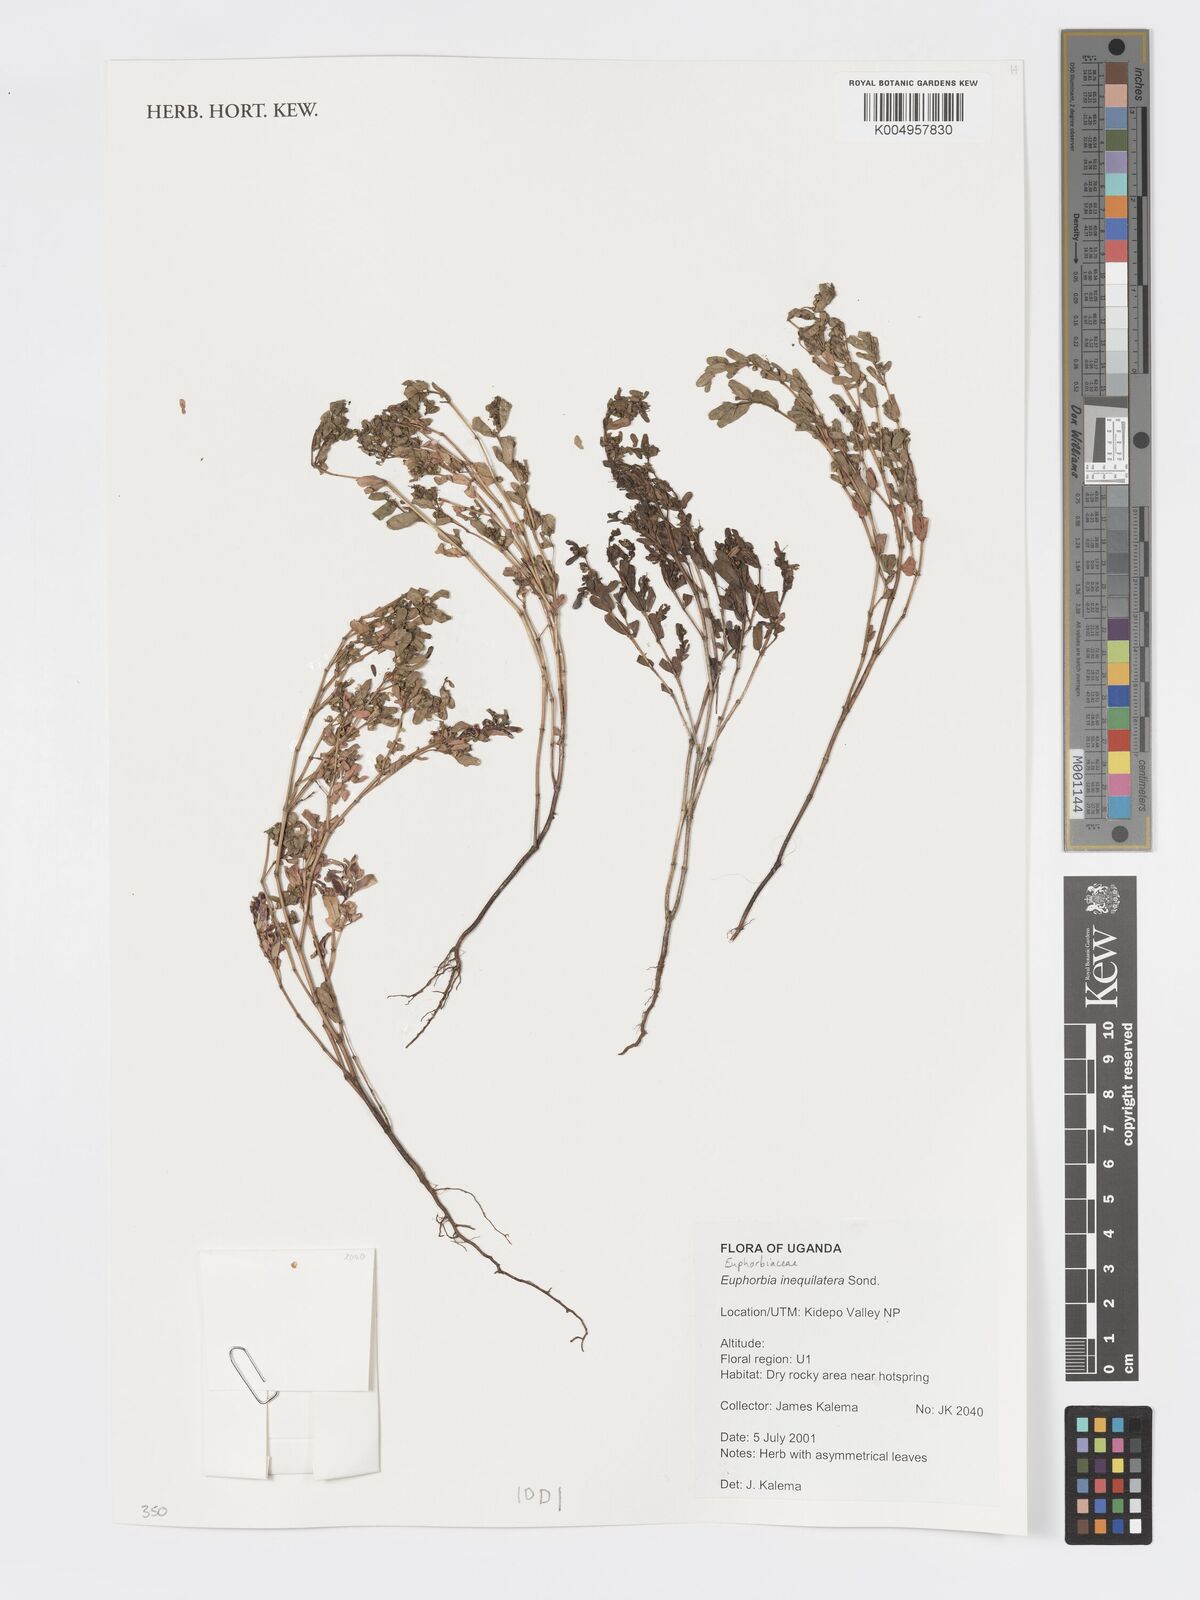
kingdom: Plantae
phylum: Tracheophyta
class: Magnoliopsida
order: Malpighiales
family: Euphorbiaceae
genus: Euphorbia
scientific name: Euphorbia inaequilatera
